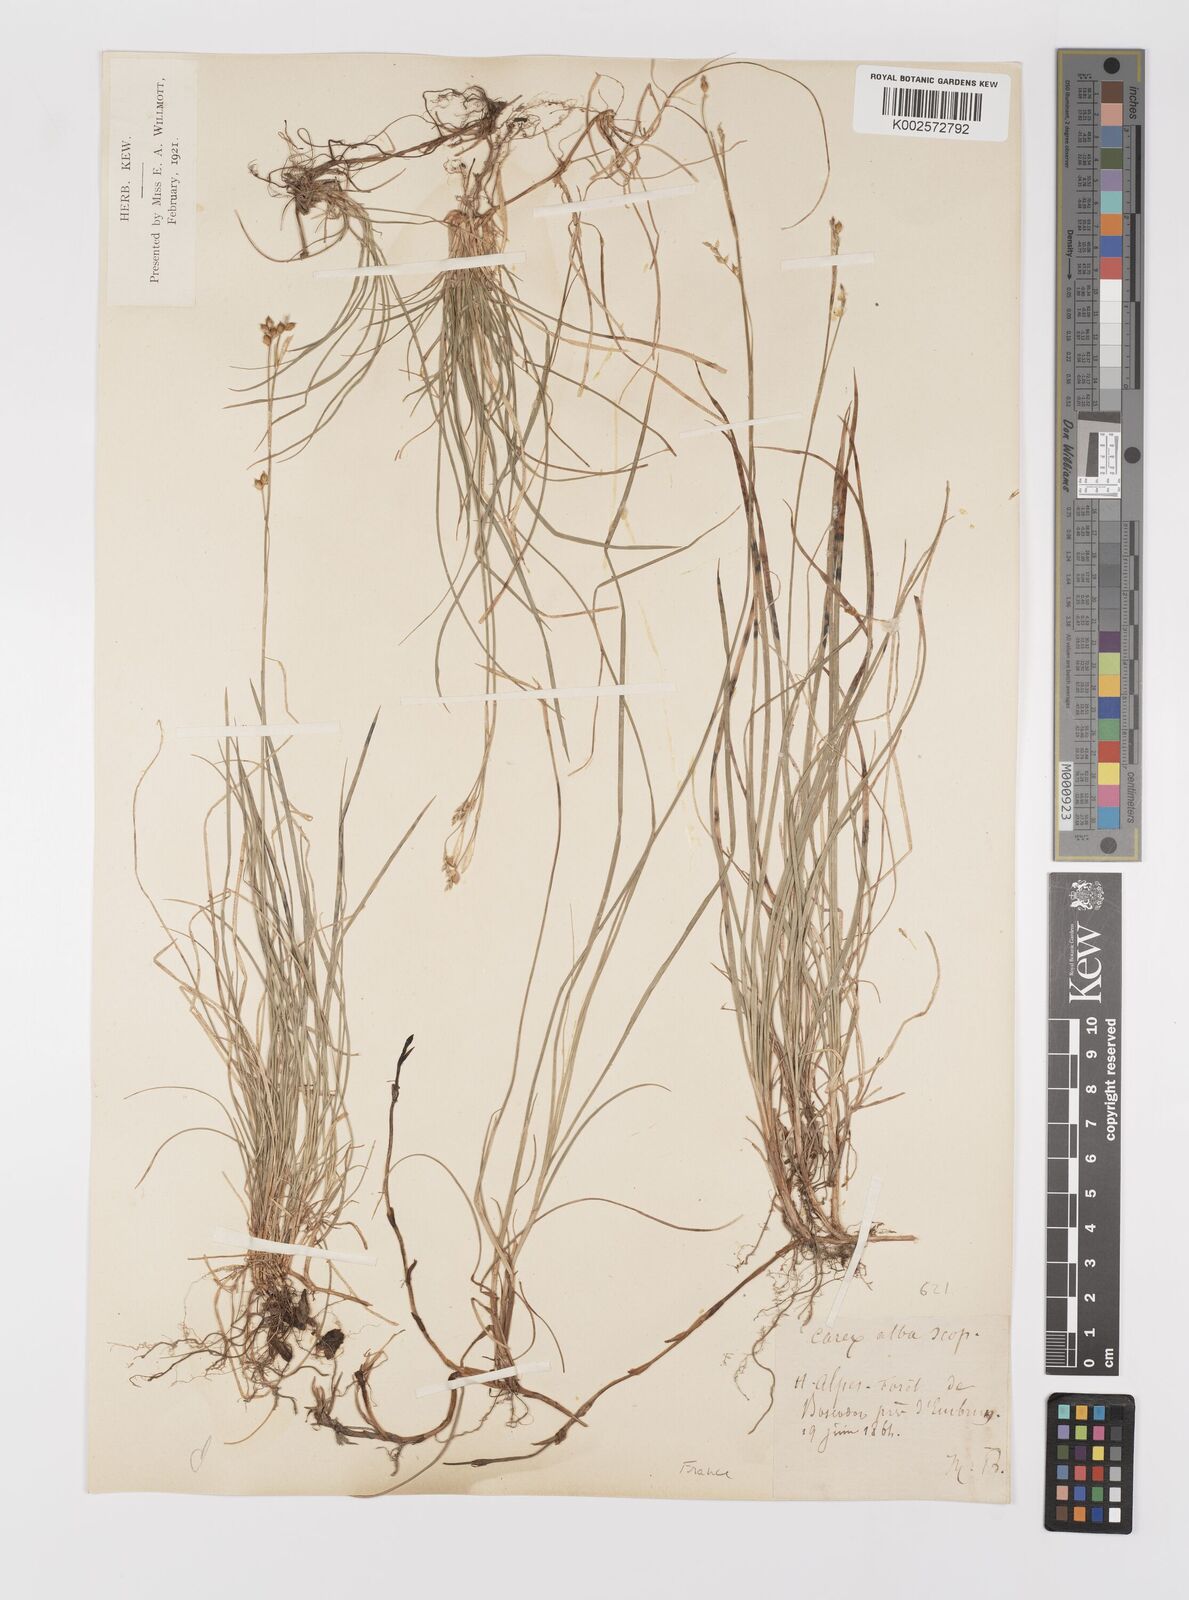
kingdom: Plantae
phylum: Tracheophyta
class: Liliopsida
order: Poales
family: Cyperaceae
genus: Carex
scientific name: Carex alba
